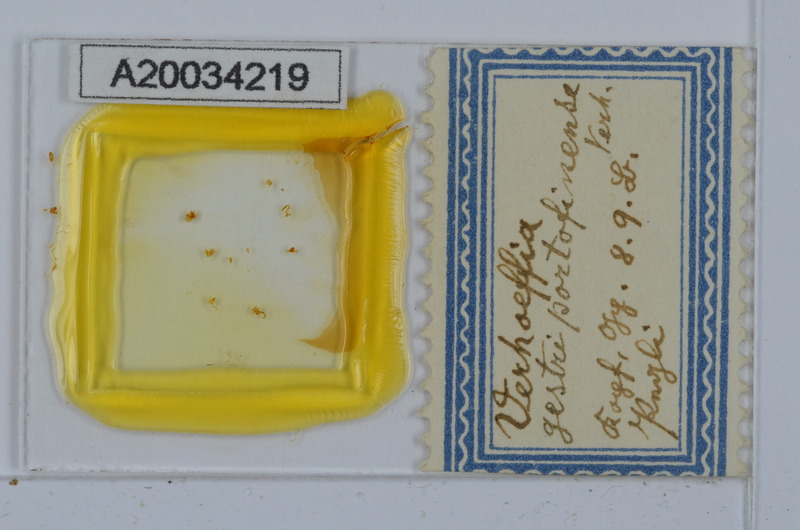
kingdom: Animalia
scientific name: Animalia
